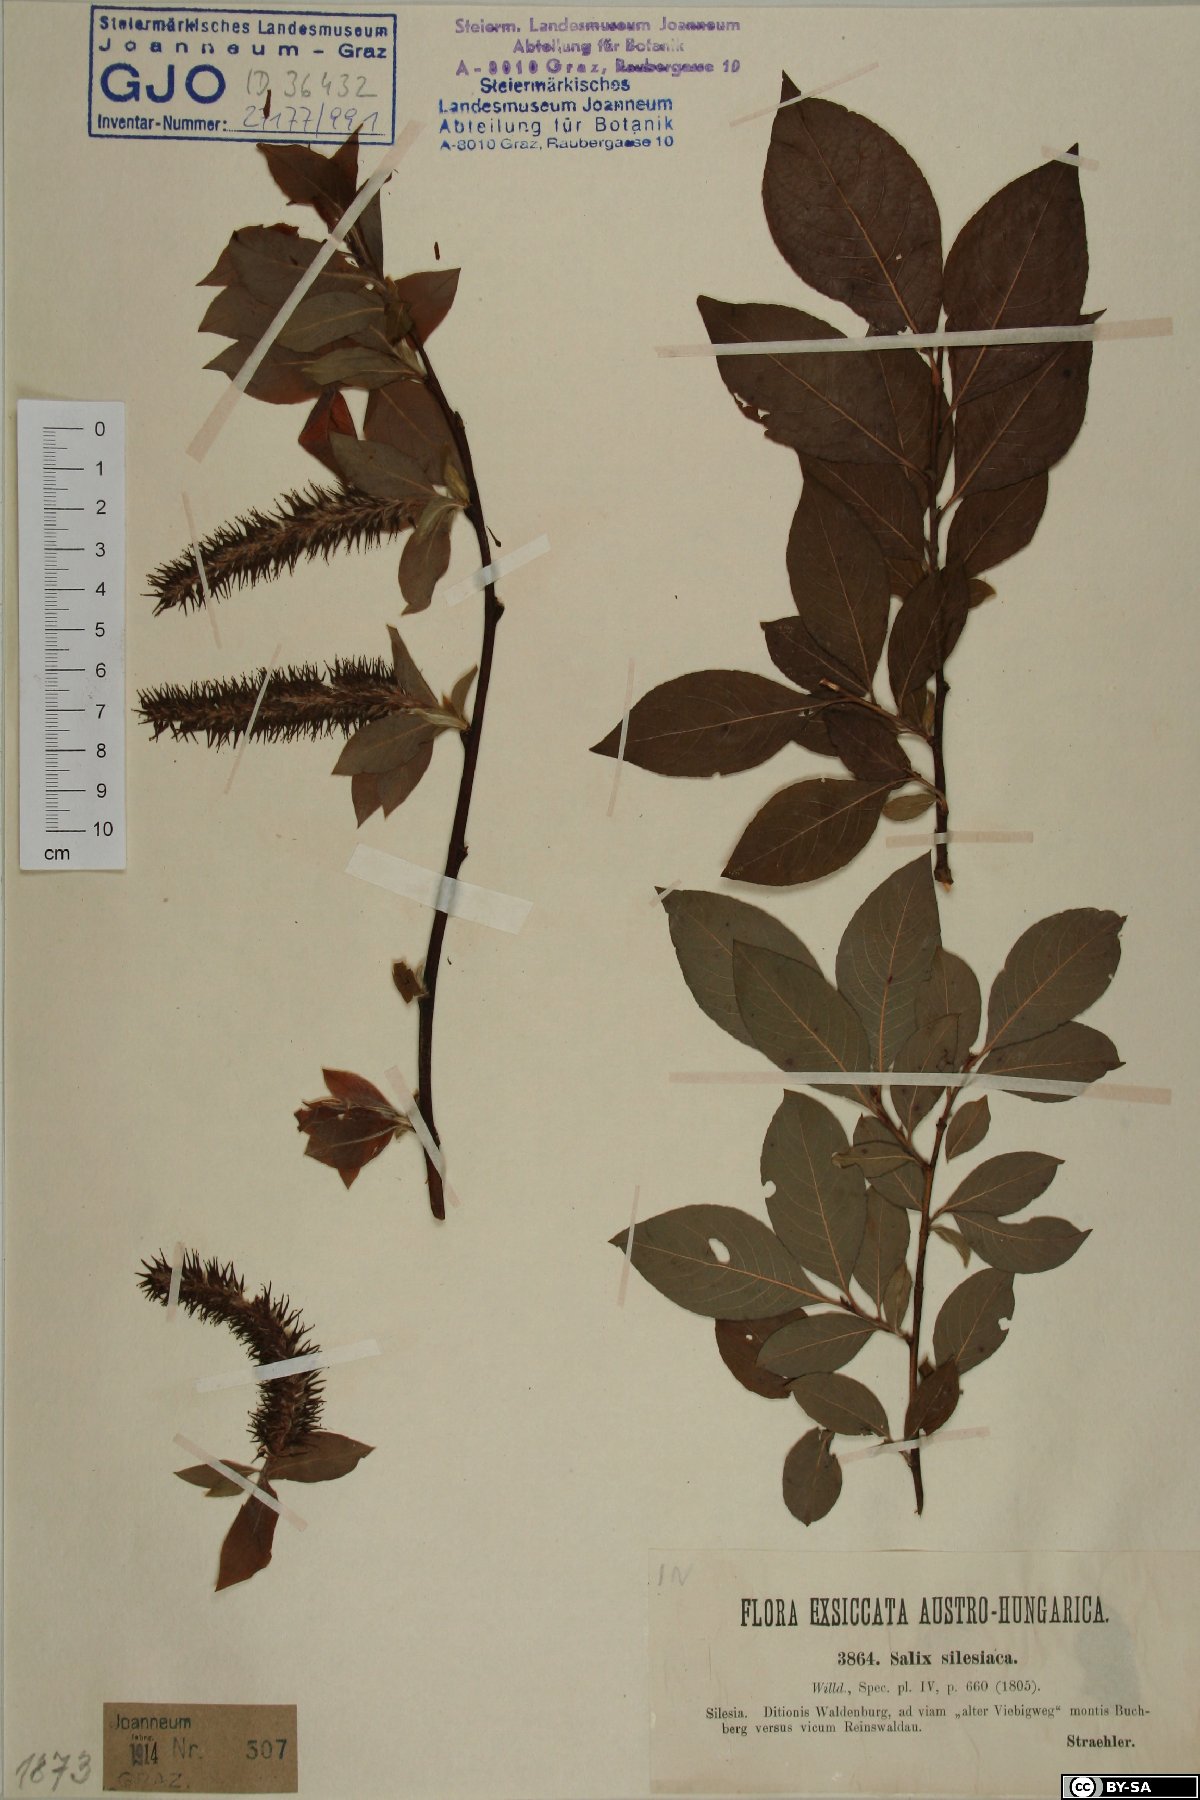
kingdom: Plantae
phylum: Tracheophyta
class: Magnoliopsida
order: Malpighiales
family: Salicaceae
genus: Salix
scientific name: Salix silesiaca
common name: Silesian willow
